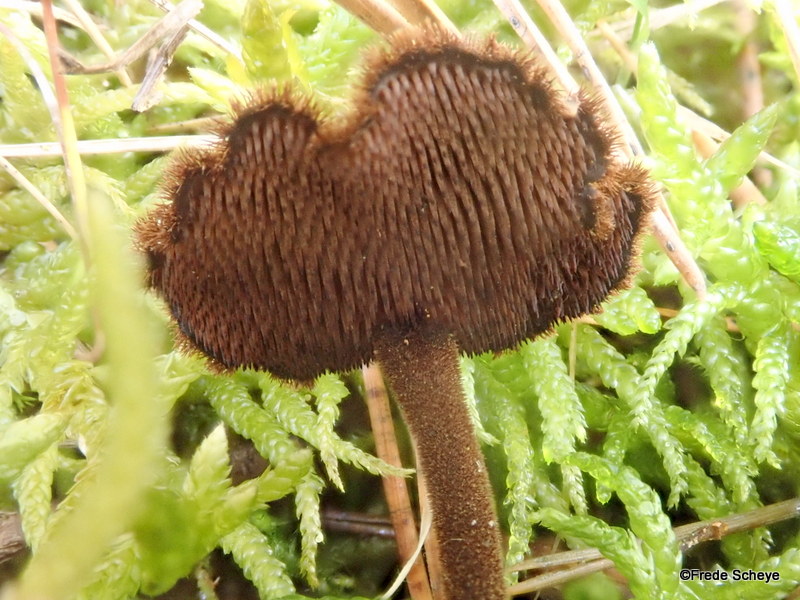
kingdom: Fungi
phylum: Basidiomycota
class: Agaricomycetes
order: Russulales
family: Auriscalpiaceae
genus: Auriscalpium
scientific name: Auriscalpium vulgare
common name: koglepigsvamp
